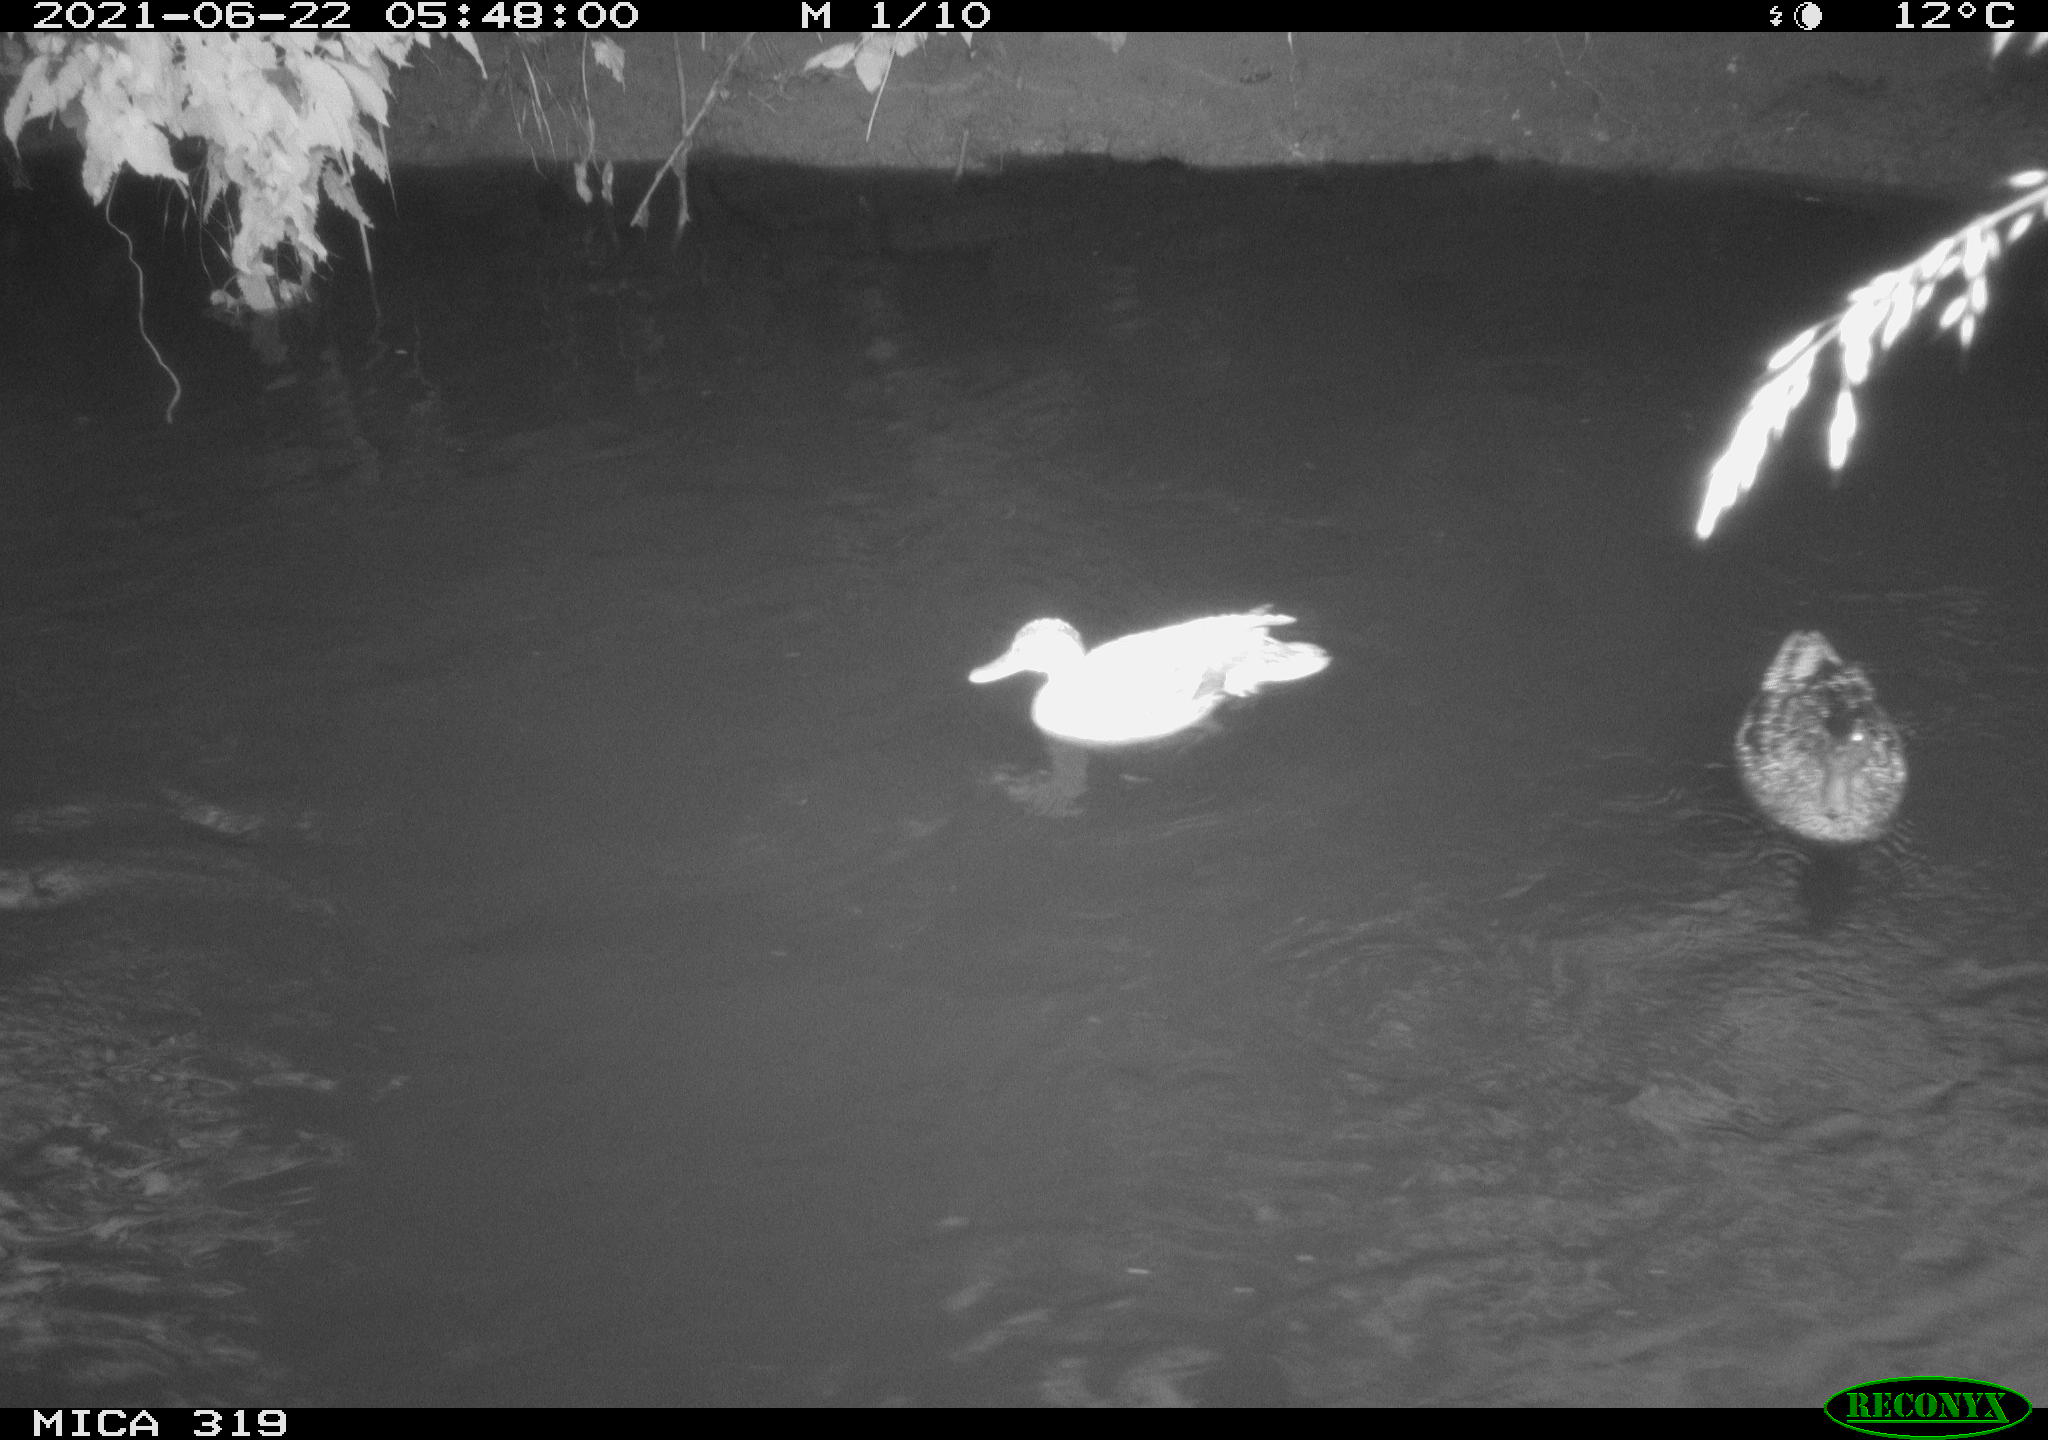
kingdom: Animalia
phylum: Chordata
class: Aves
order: Gruiformes
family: Rallidae
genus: Gallinula
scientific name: Gallinula chloropus
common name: Common moorhen
